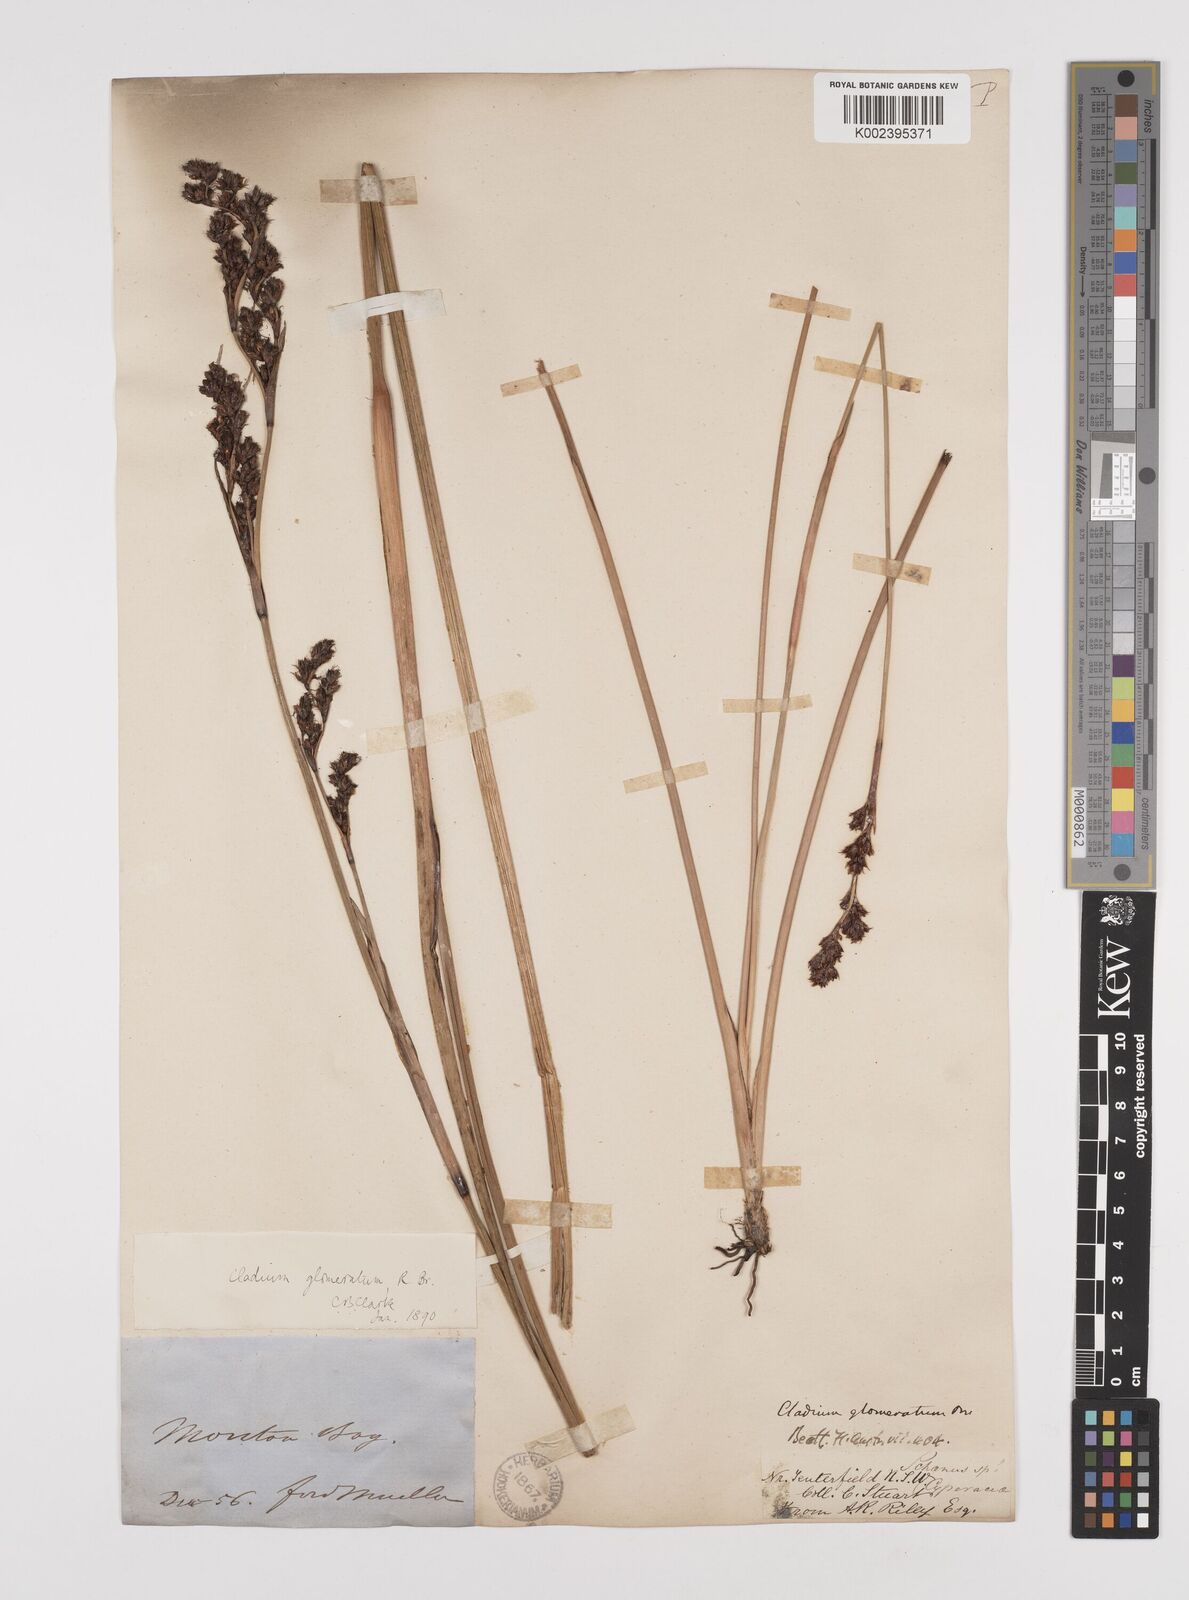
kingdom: Plantae
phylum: Tracheophyta
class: Liliopsida
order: Poales
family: Cyperaceae
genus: Machaerina
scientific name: Machaerina rubiginosa
